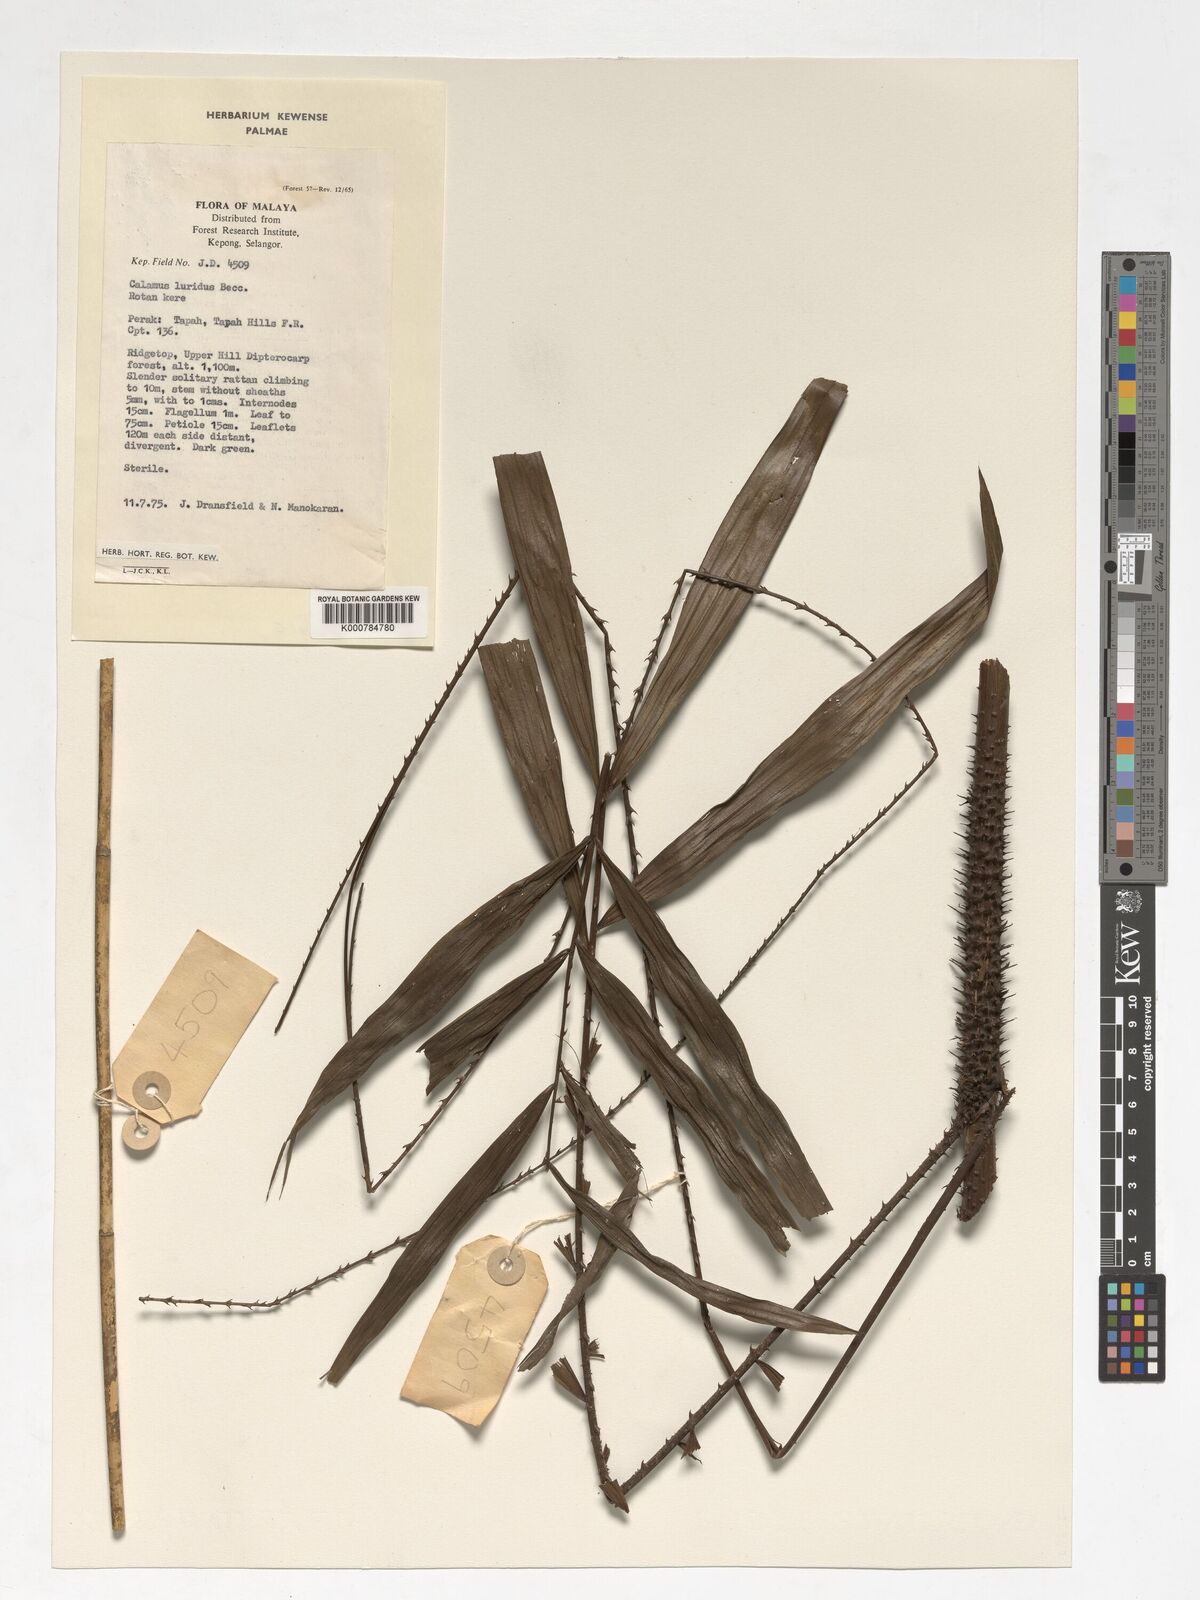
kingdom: Plantae
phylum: Tracheophyta
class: Liliopsida
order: Arecales
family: Arecaceae
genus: Calamus
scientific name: Calamus micranthus
